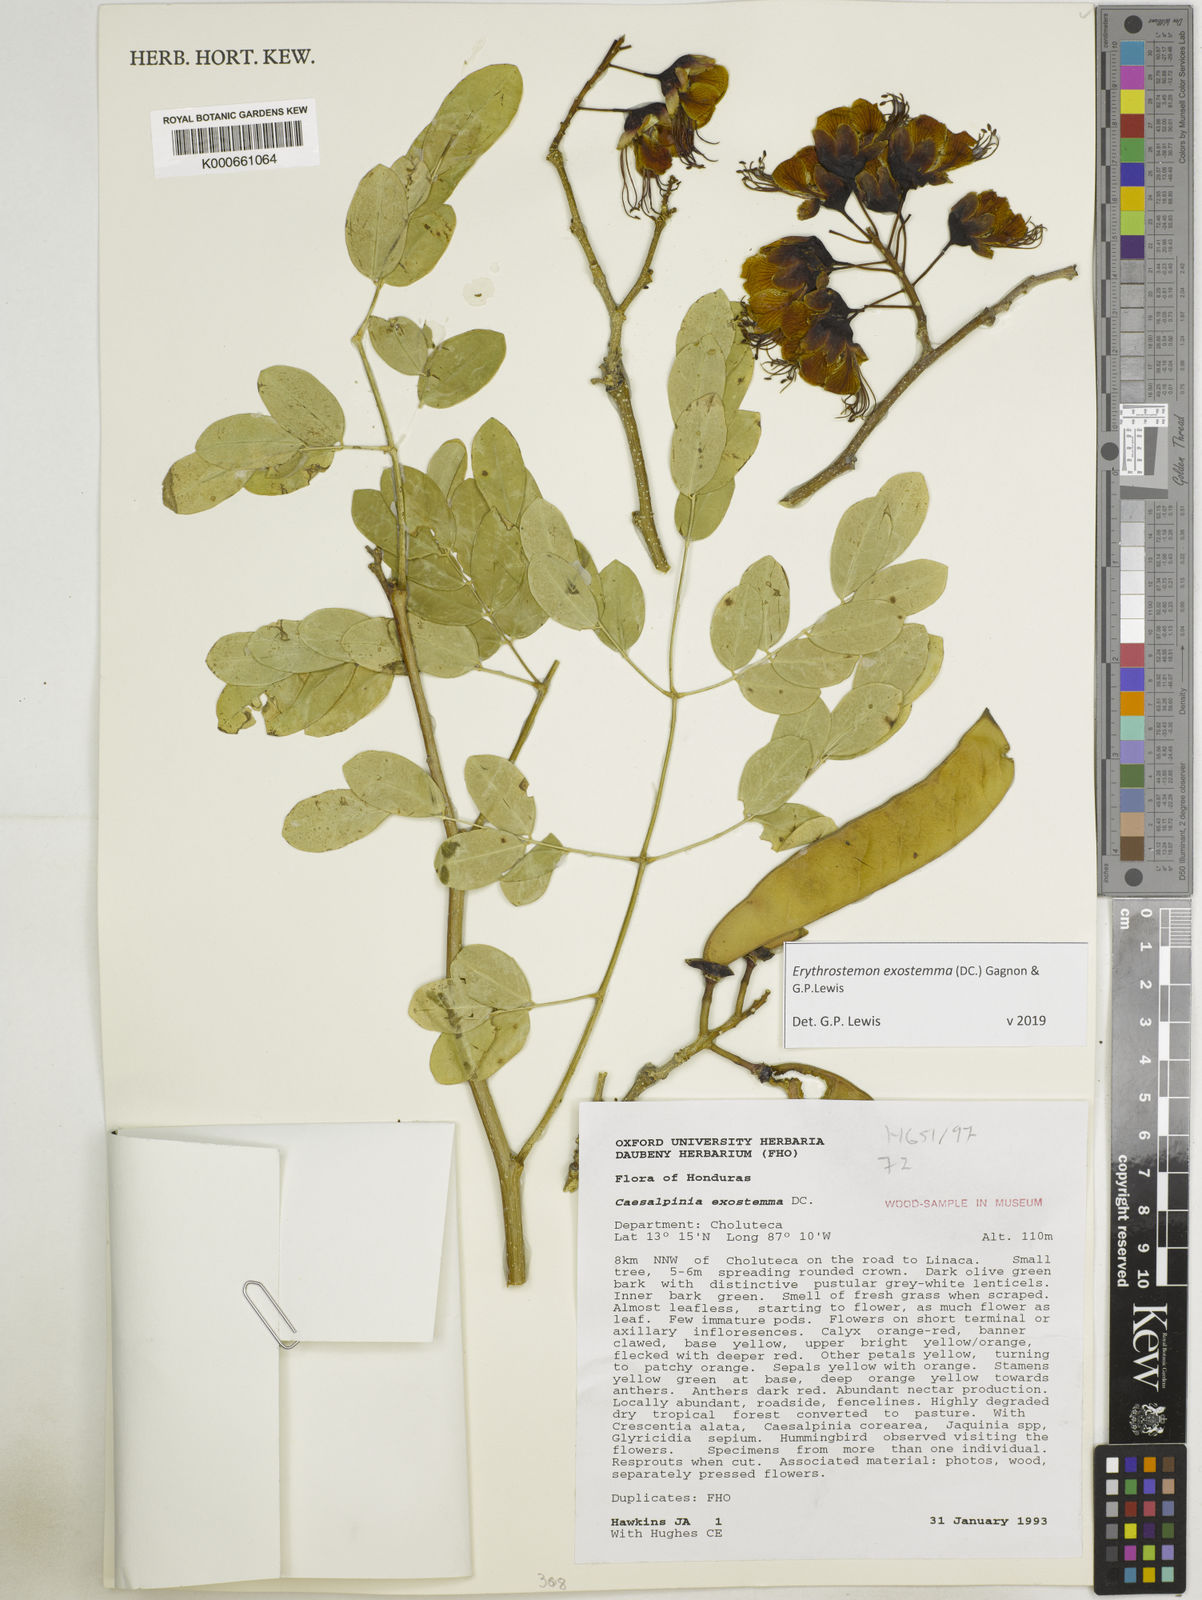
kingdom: Plantae
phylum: Tracheophyta
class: Magnoliopsida
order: Fabales
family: Fabaceae
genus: Erythrostemon
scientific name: Erythrostemon exostemma
